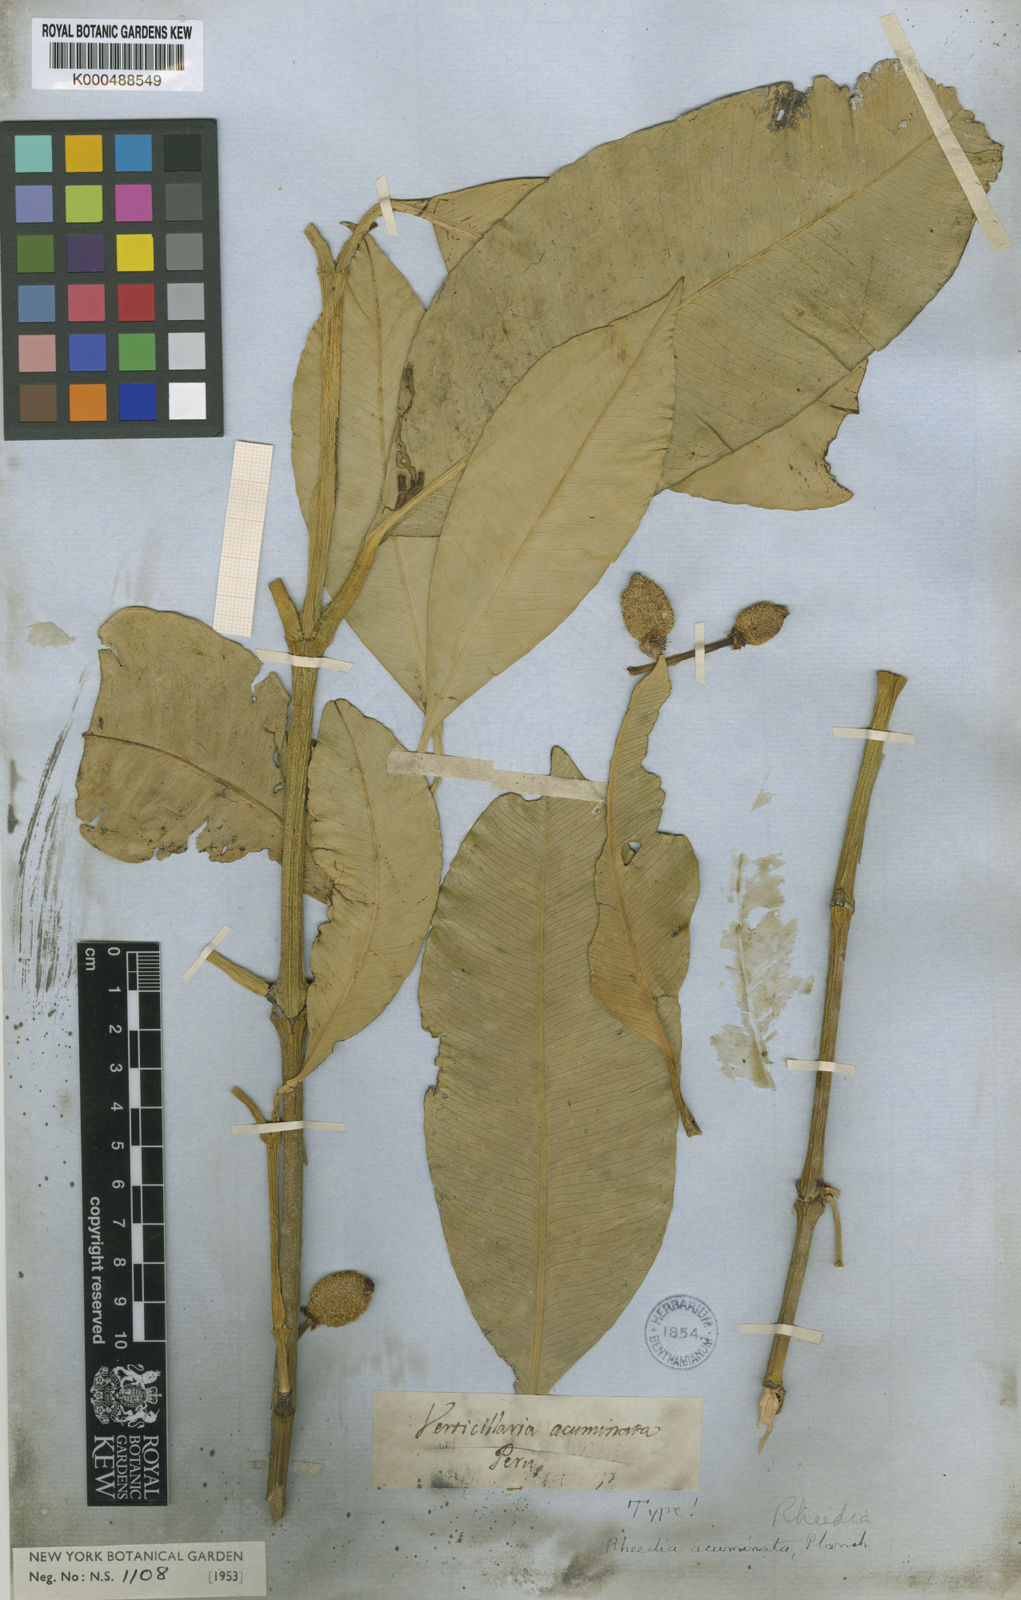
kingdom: Plantae
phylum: Tracheophyta
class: Magnoliopsida
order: Malpighiales
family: Clusiaceae
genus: Garcinia
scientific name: Garcinia acuminata
